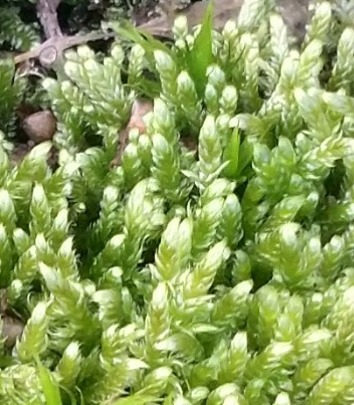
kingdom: Plantae
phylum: Bryophyta
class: Bryopsida
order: Hypnales
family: Hypnaceae
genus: Hypnum
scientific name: Hypnum cupressiforme
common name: Almindelig cypresmos
